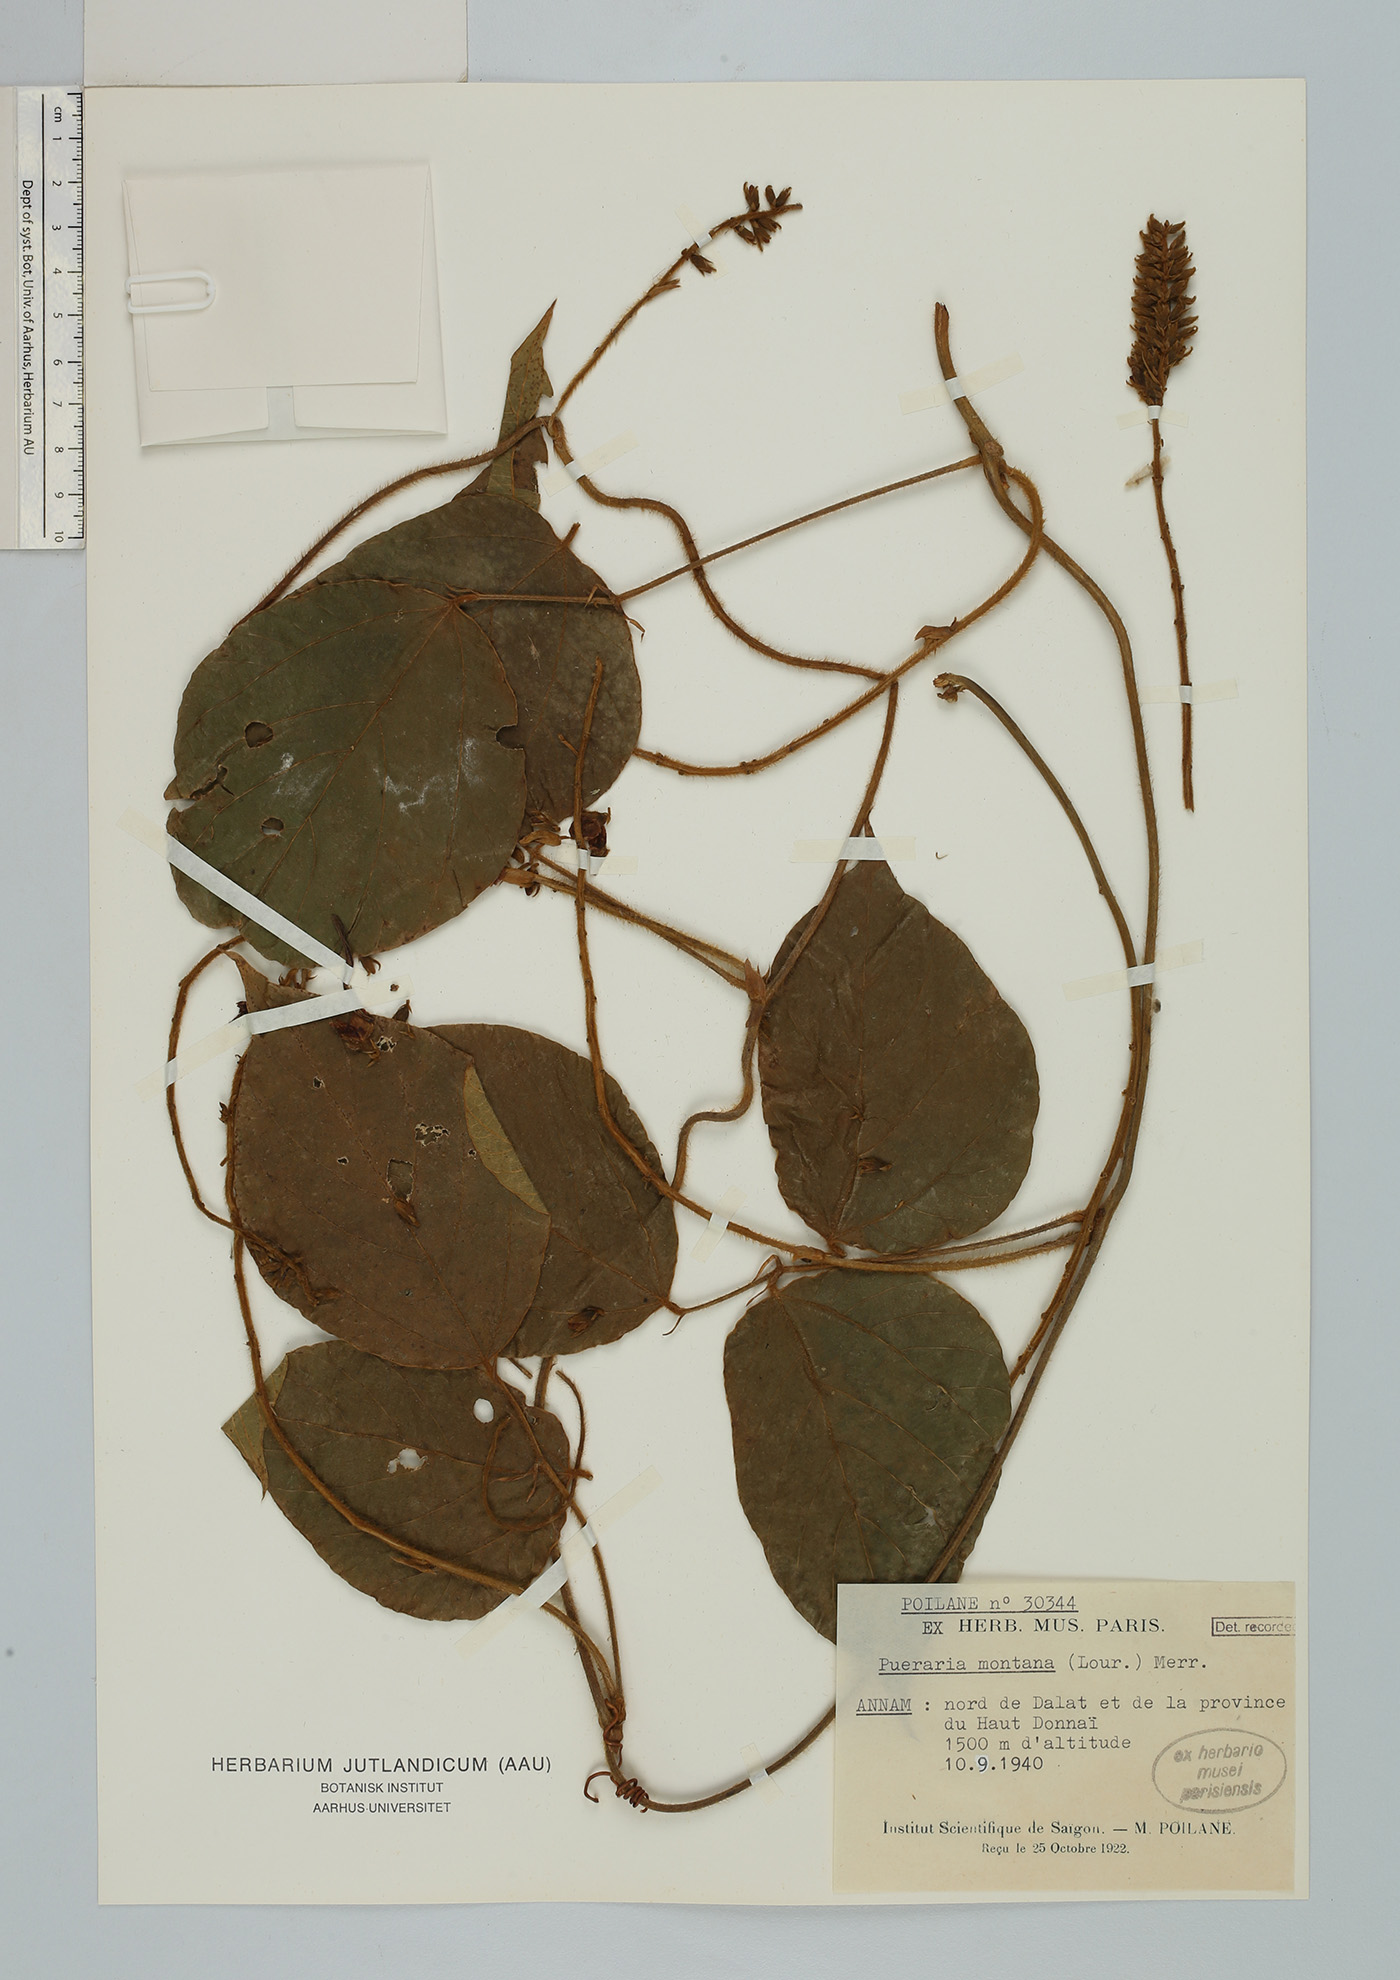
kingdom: Plantae
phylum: Tracheophyta
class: Magnoliopsida
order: Fabales
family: Fabaceae
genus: Pueraria
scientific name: Pueraria montana
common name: Kudzu
